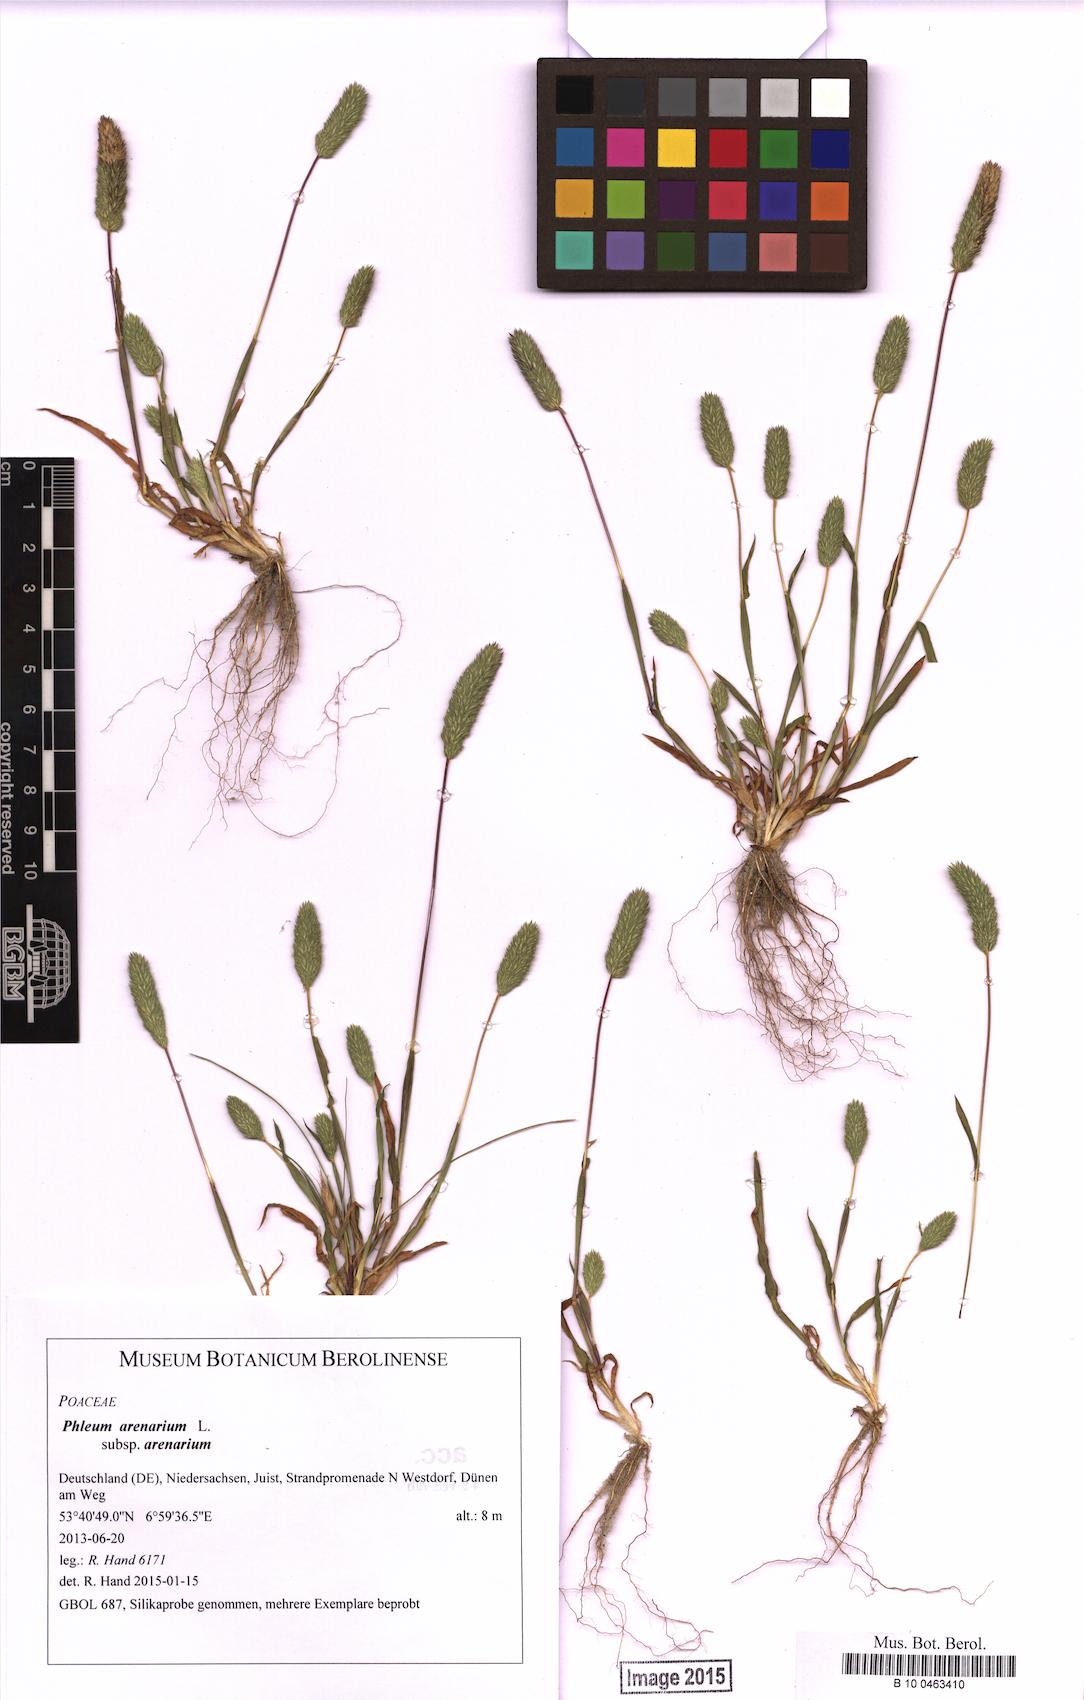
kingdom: Plantae
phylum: Tracheophyta
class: Liliopsida
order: Poales
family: Poaceae
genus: Phleum
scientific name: Phleum arenarium
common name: Sand cat's-tail
